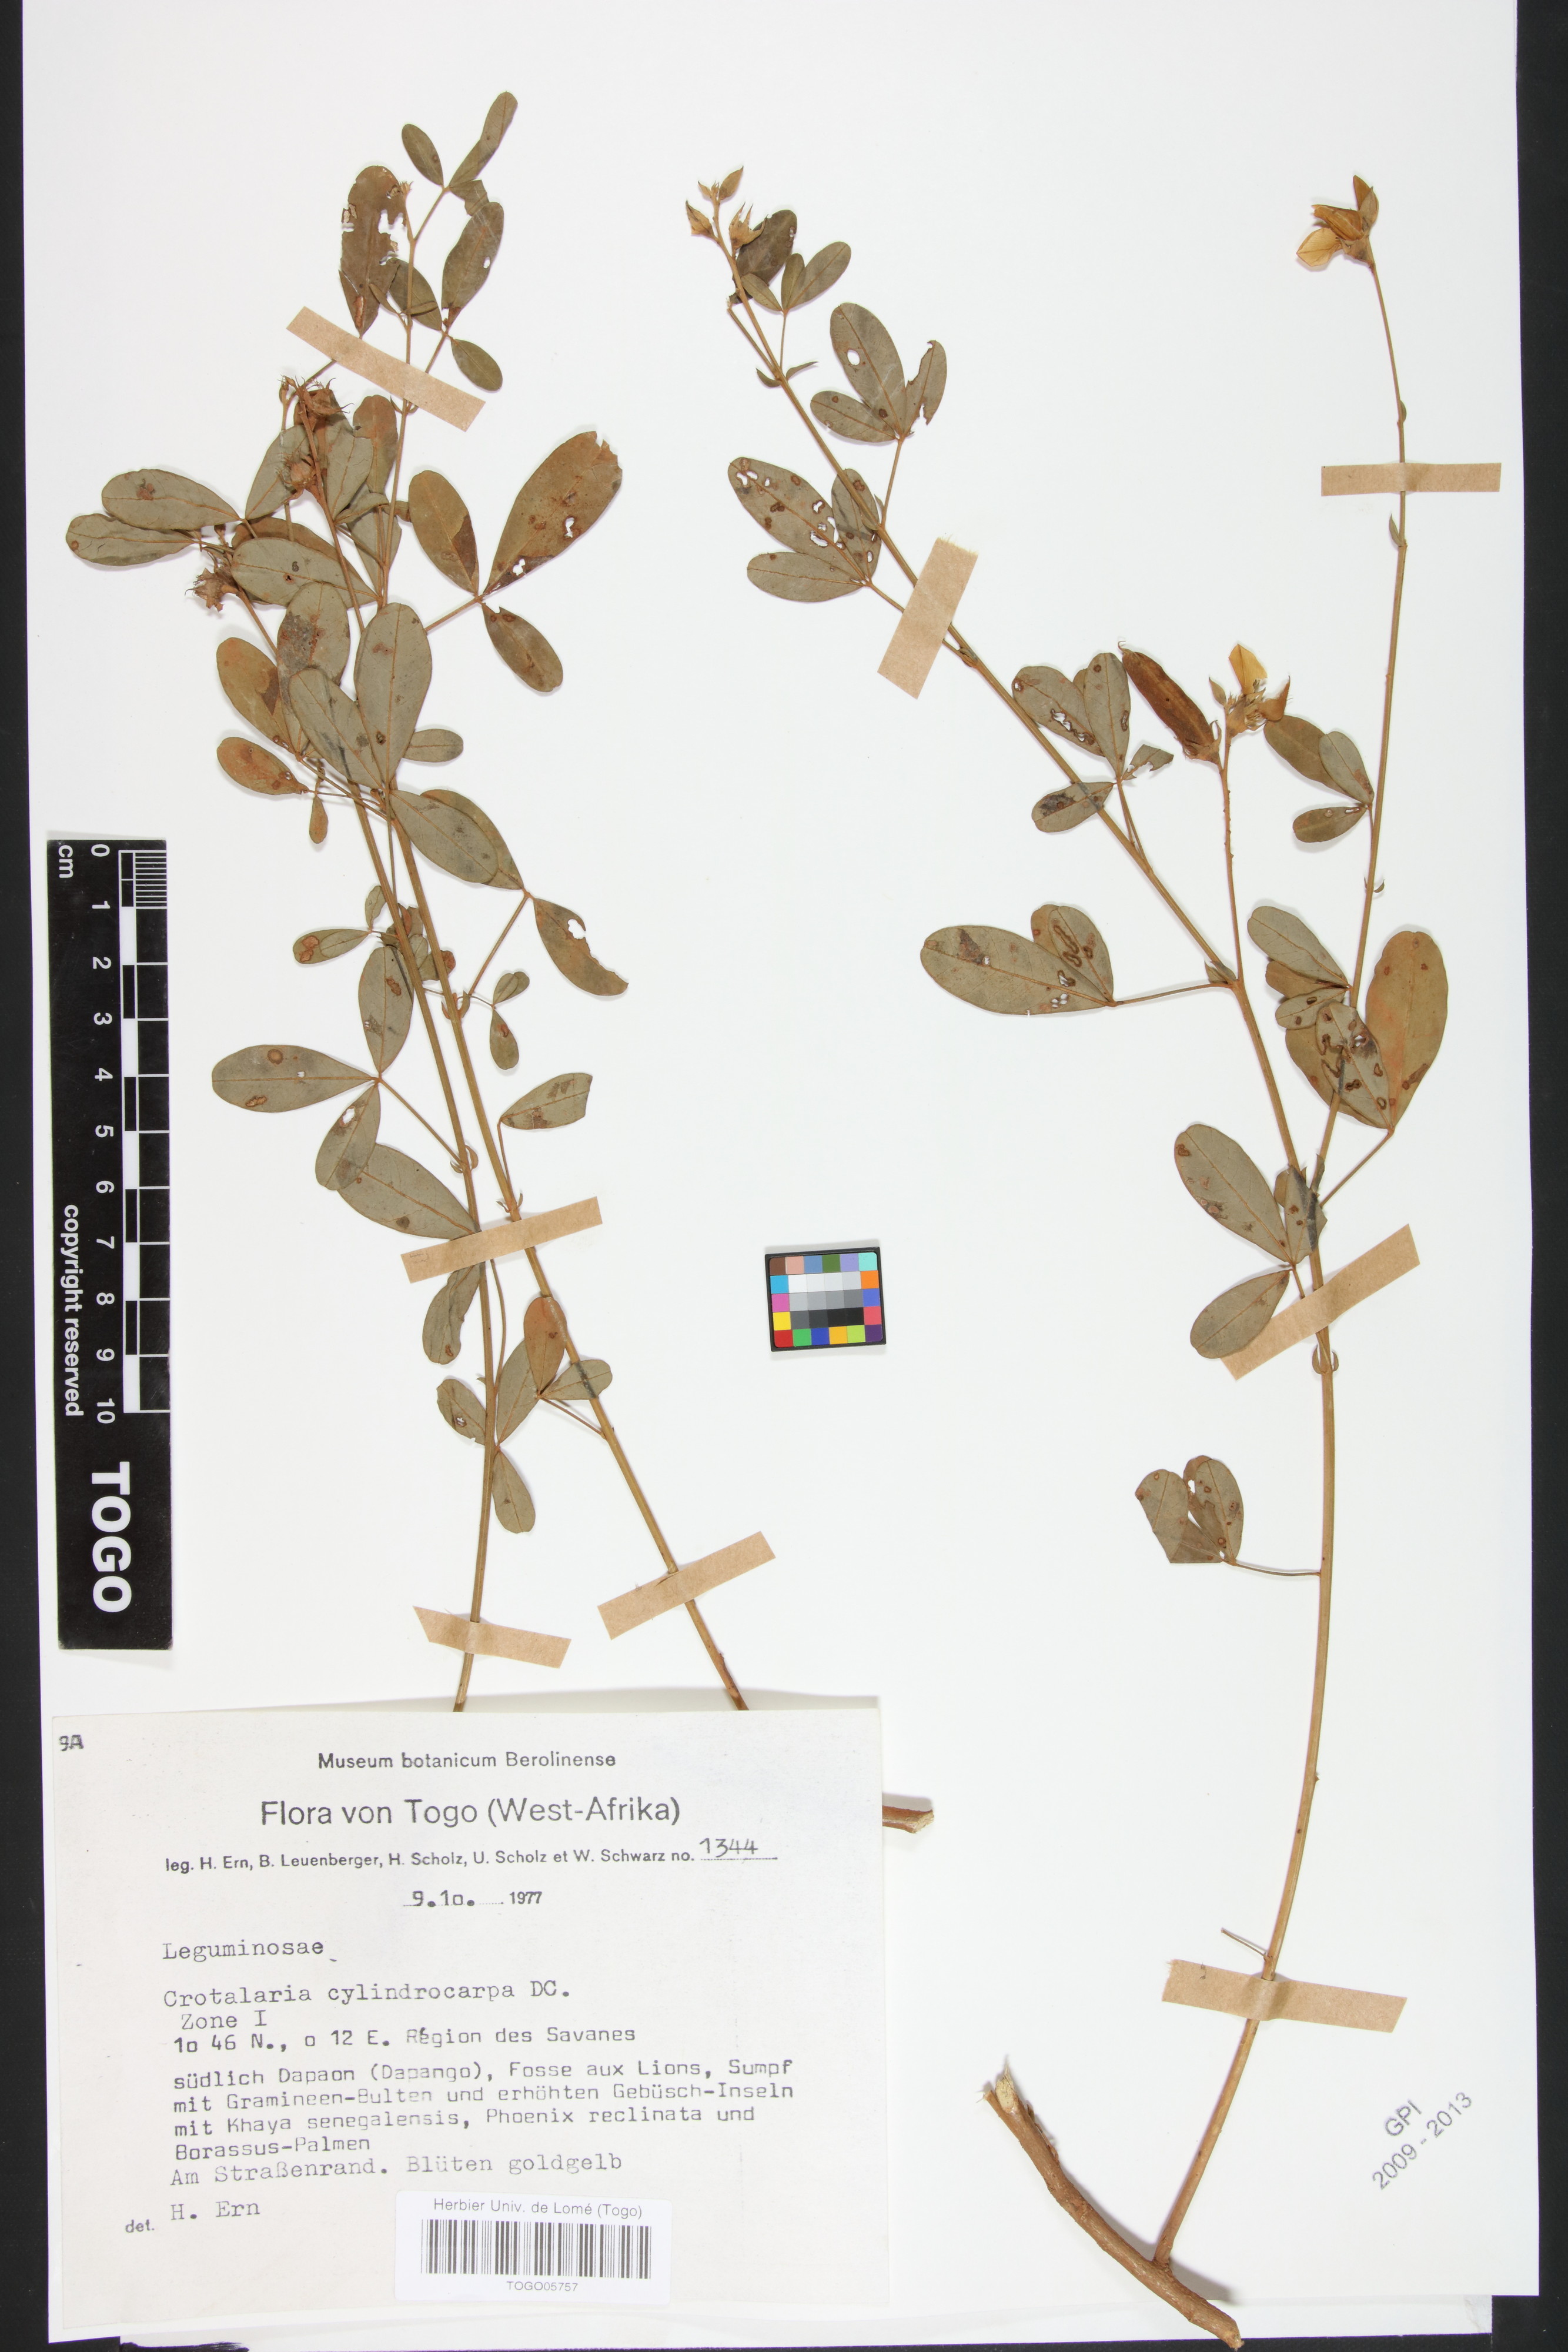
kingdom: Plantae
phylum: Tracheophyta
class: Magnoliopsida
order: Fabales
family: Fabaceae
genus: Crotalaria
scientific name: Crotalaria cylindrocarpa
